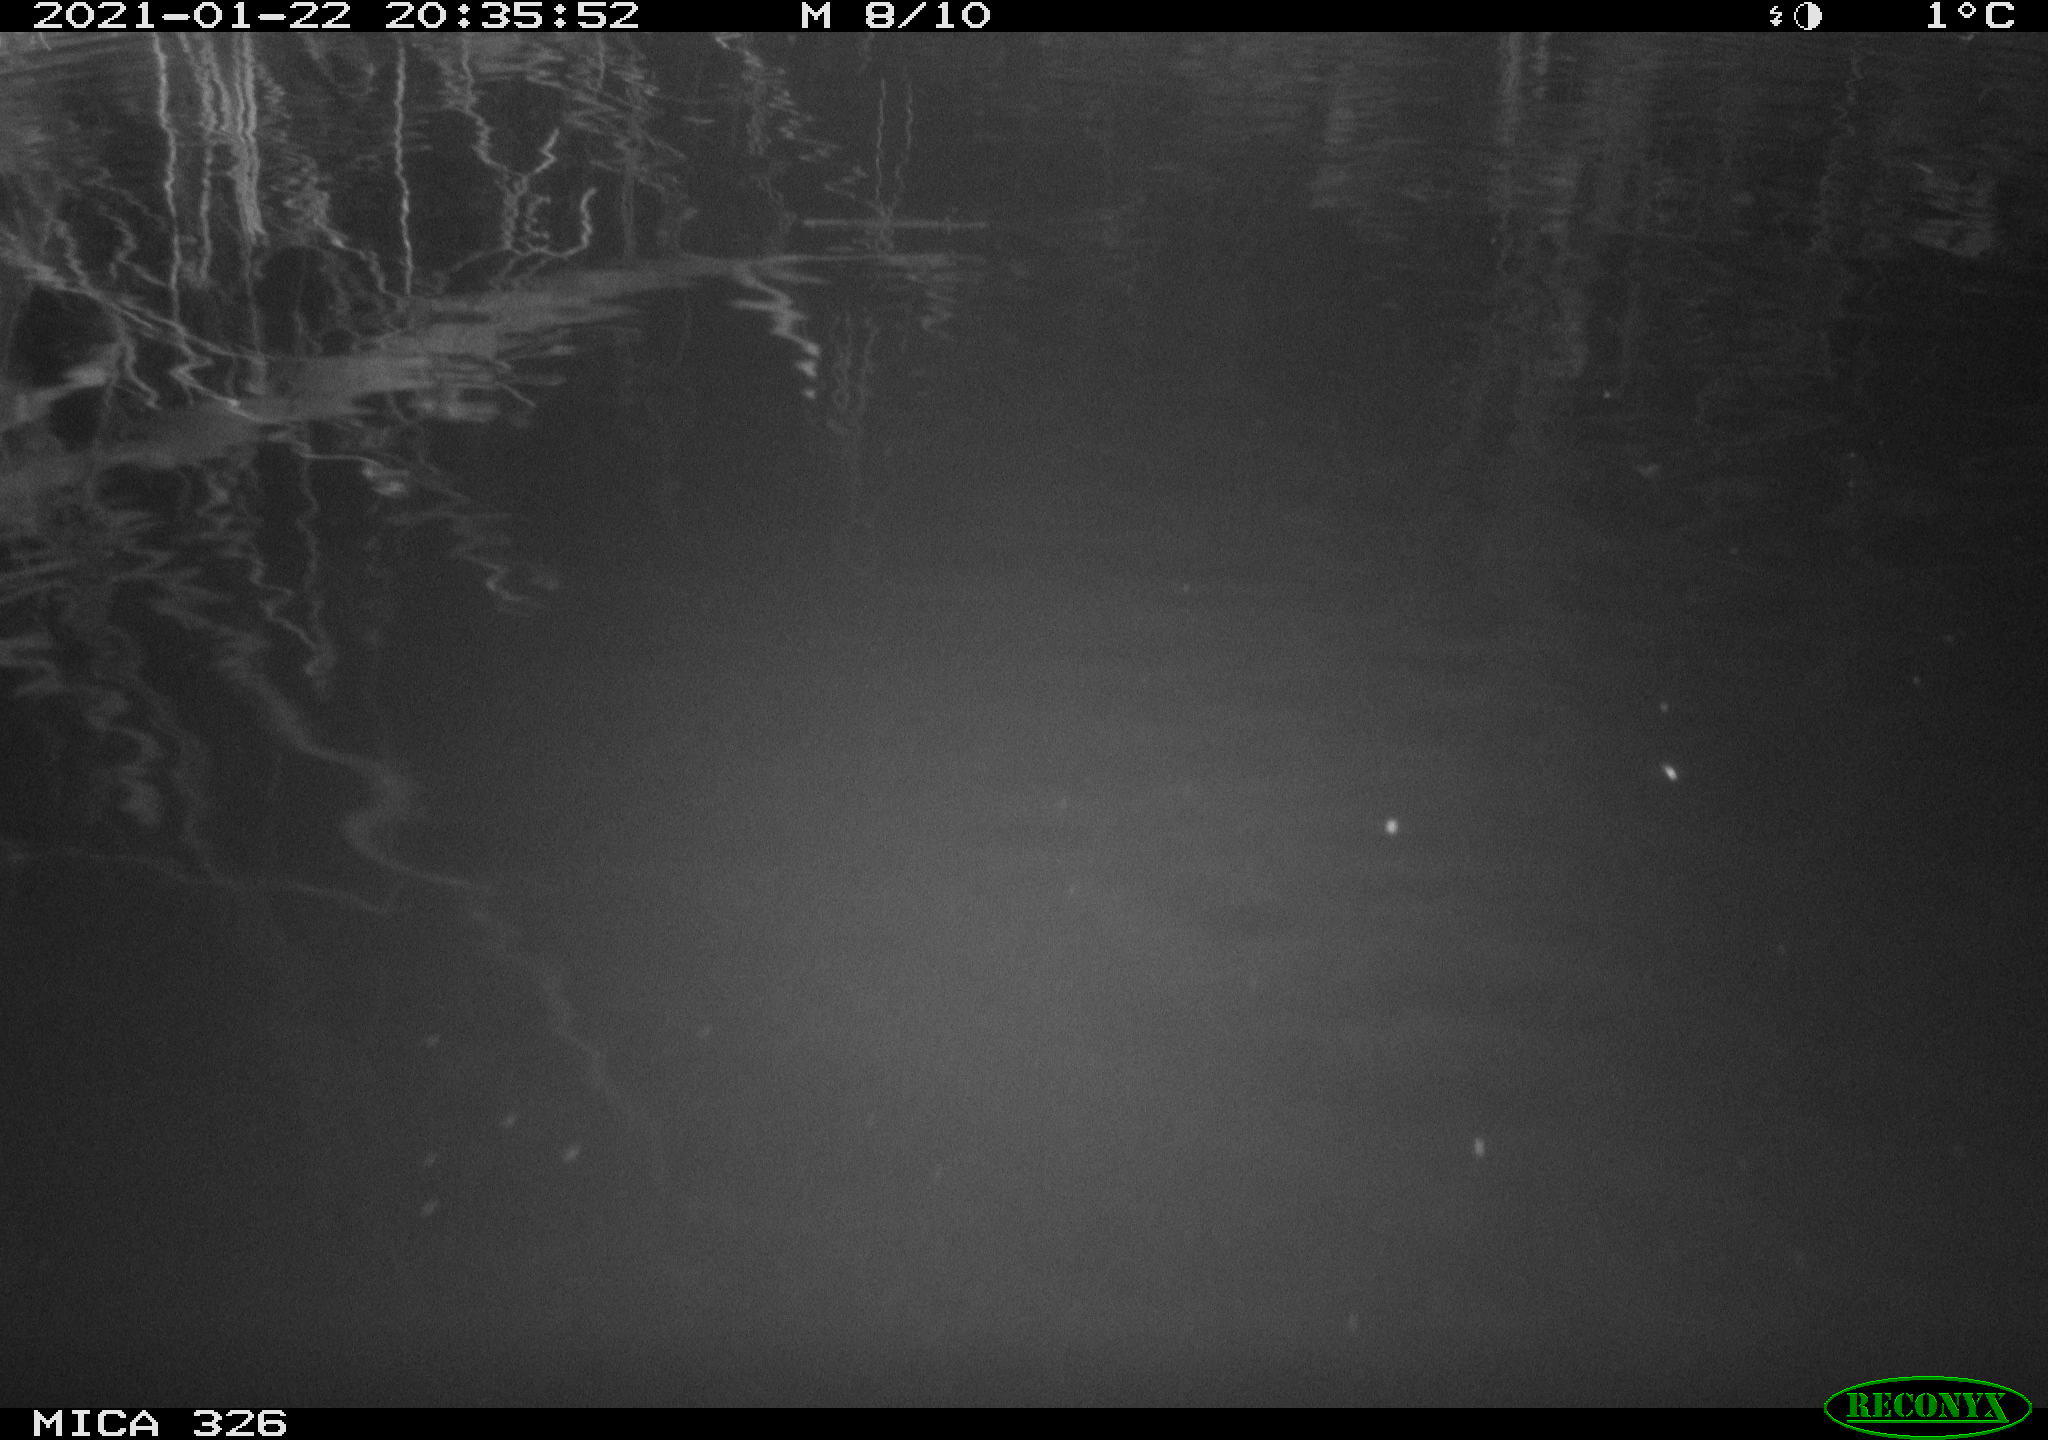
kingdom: Animalia
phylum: Chordata
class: Mammalia
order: Rodentia
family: Cricetidae
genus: Ondatra
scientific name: Ondatra zibethicus
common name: Muskrat
